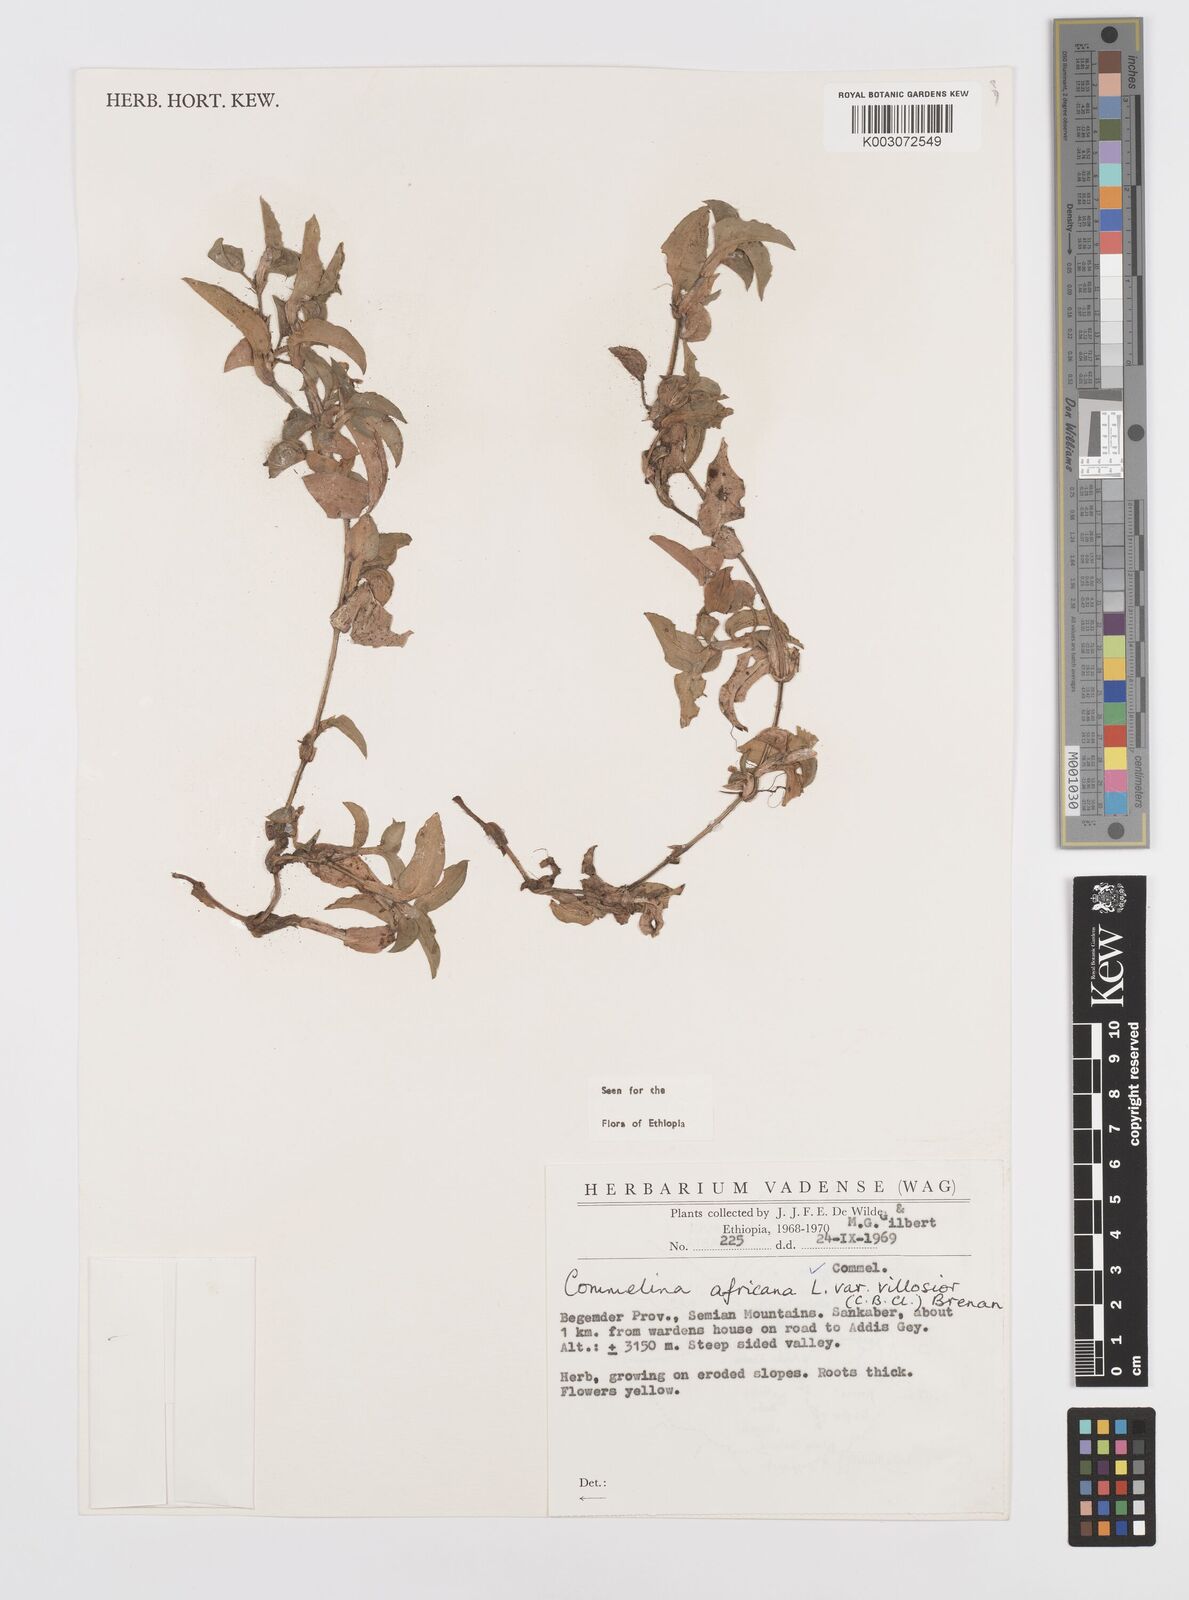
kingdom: Plantae
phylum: Tracheophyta
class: Liliopsida
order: Commelinales
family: Commelinaceae
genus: Commelina
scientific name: Commelina africana
